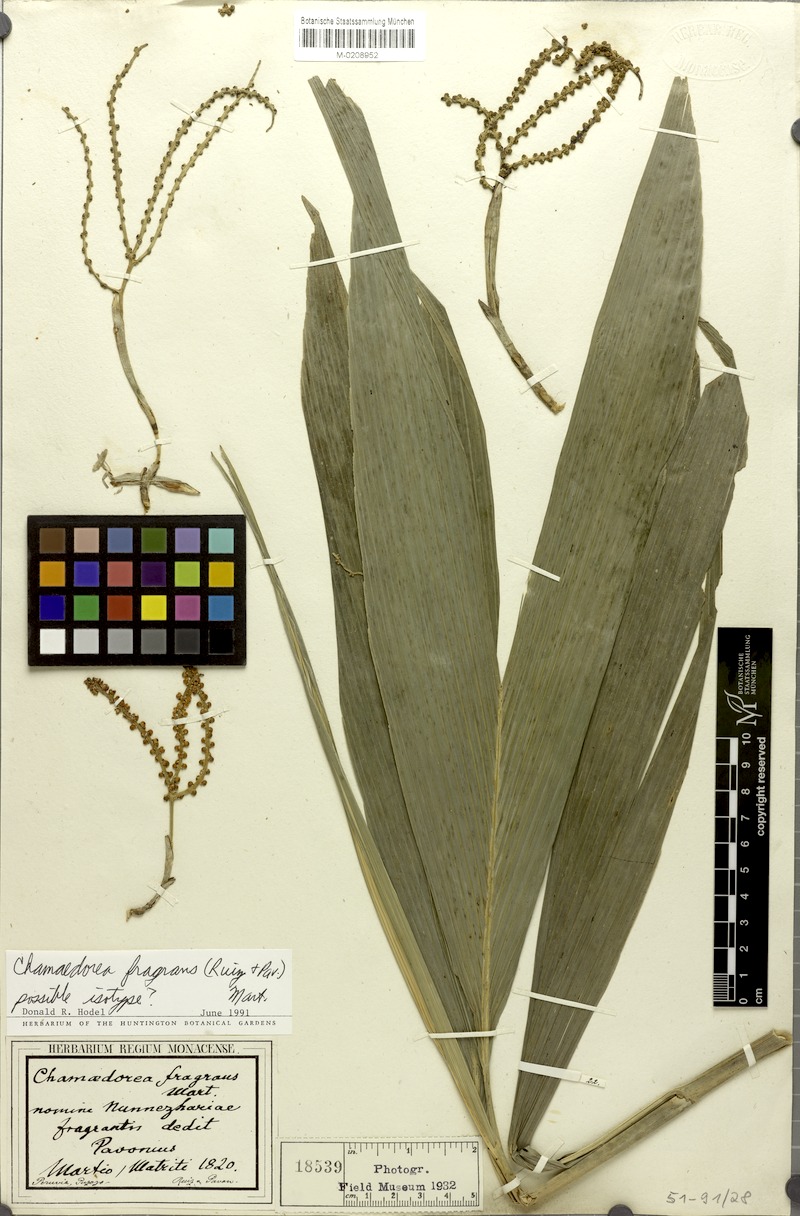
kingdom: Plantae
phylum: Tracheophyta
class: Liliopsida
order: Arecales
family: Arecaceae
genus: Chamaedorea
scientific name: Chamaedorea fragrans
